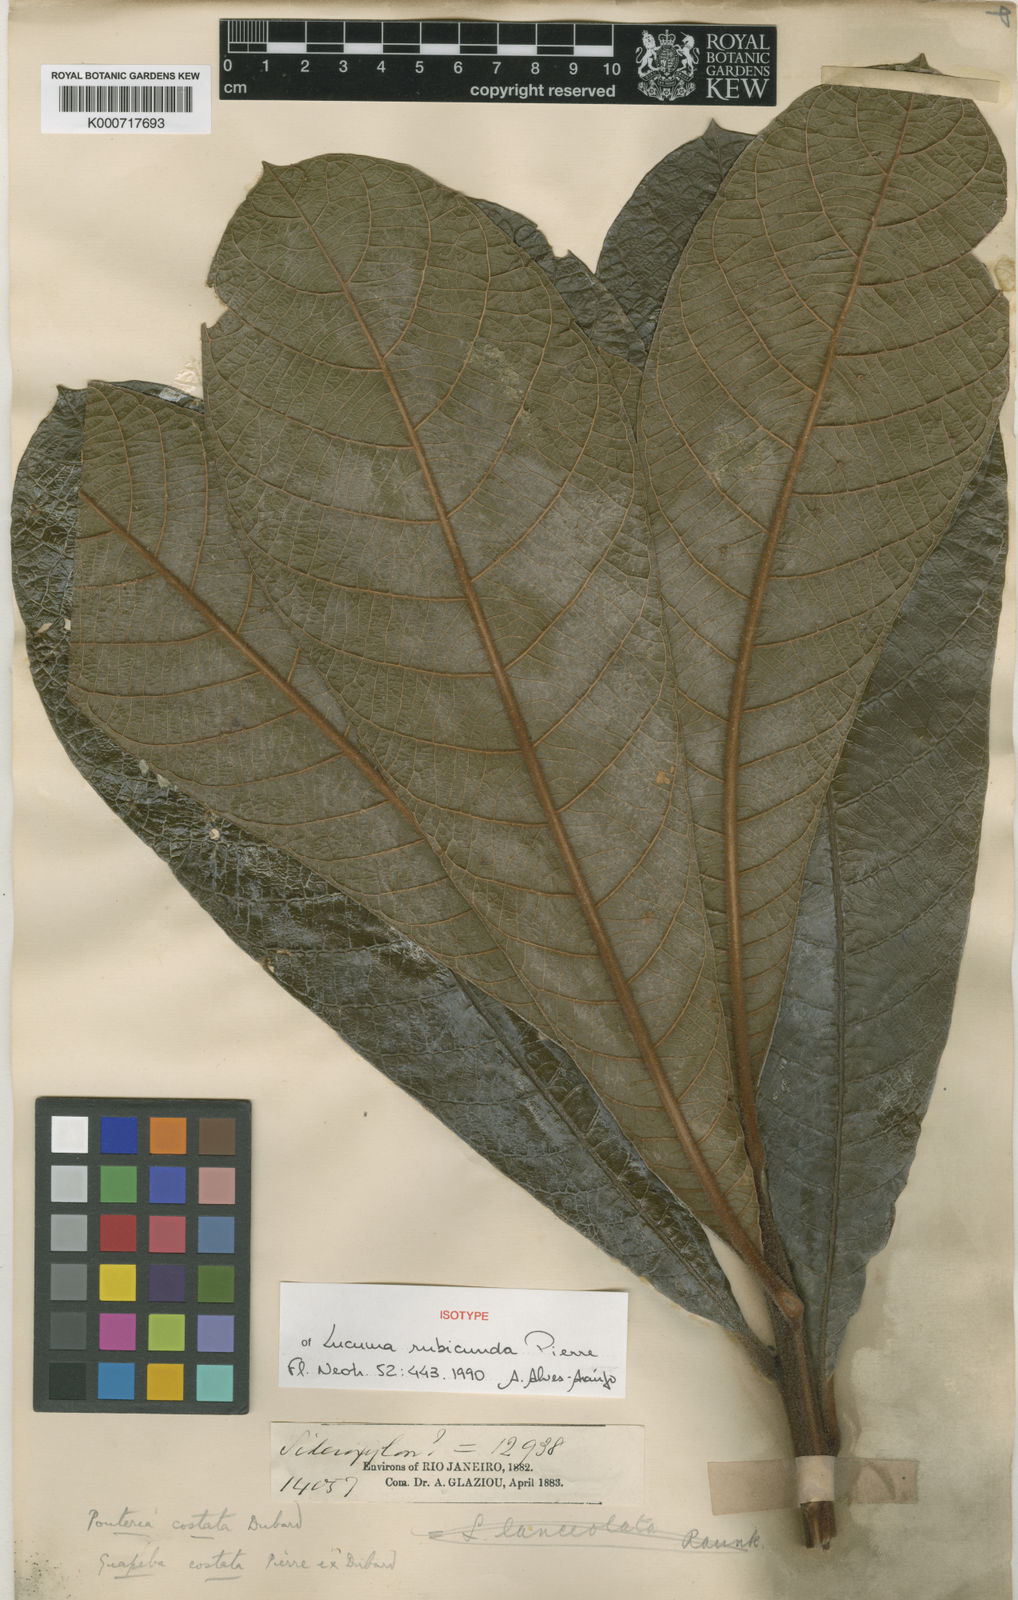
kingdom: Plantae
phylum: Tracheophyta
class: Magnoliopsida
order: Ericales
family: Sapotaceae
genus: Pouteria
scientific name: Pouteria
